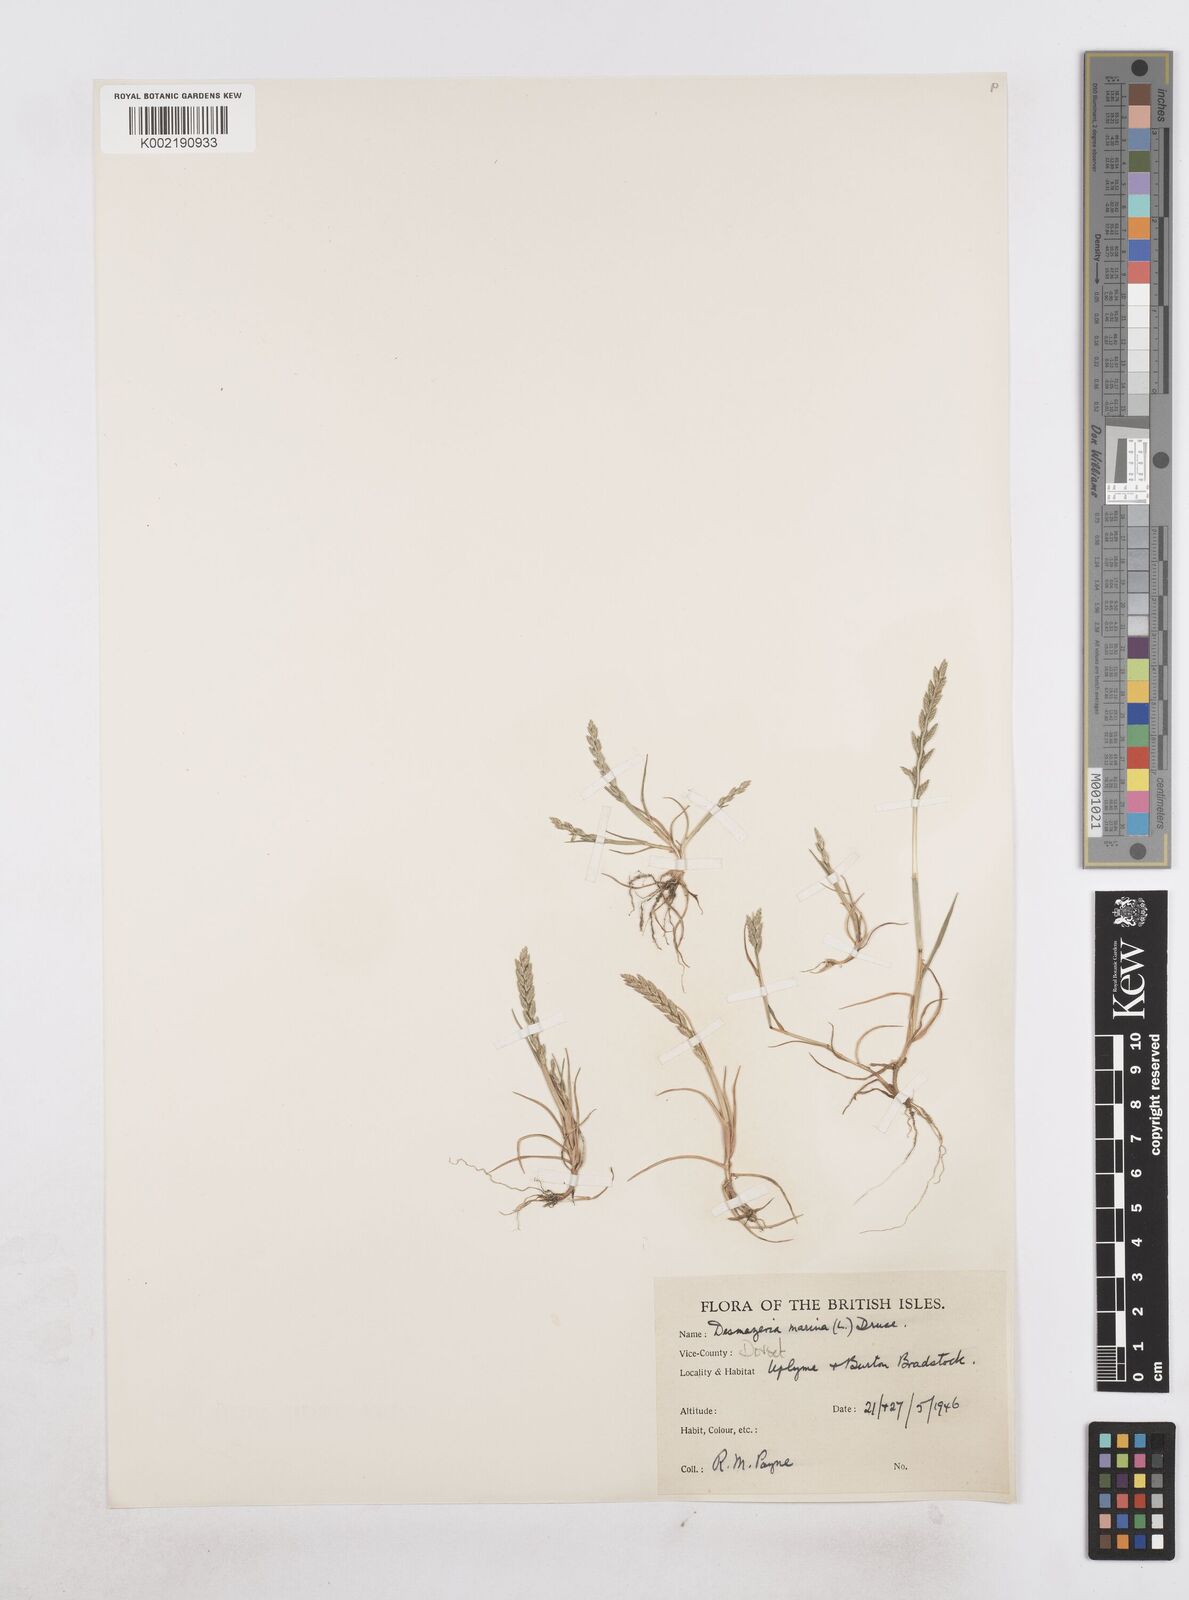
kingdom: Plantae
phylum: Tracheophyta
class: Liliopsida
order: Poales
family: Poaceae
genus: Catapodium
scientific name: Catapodium marinum
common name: Sea fern-grass
